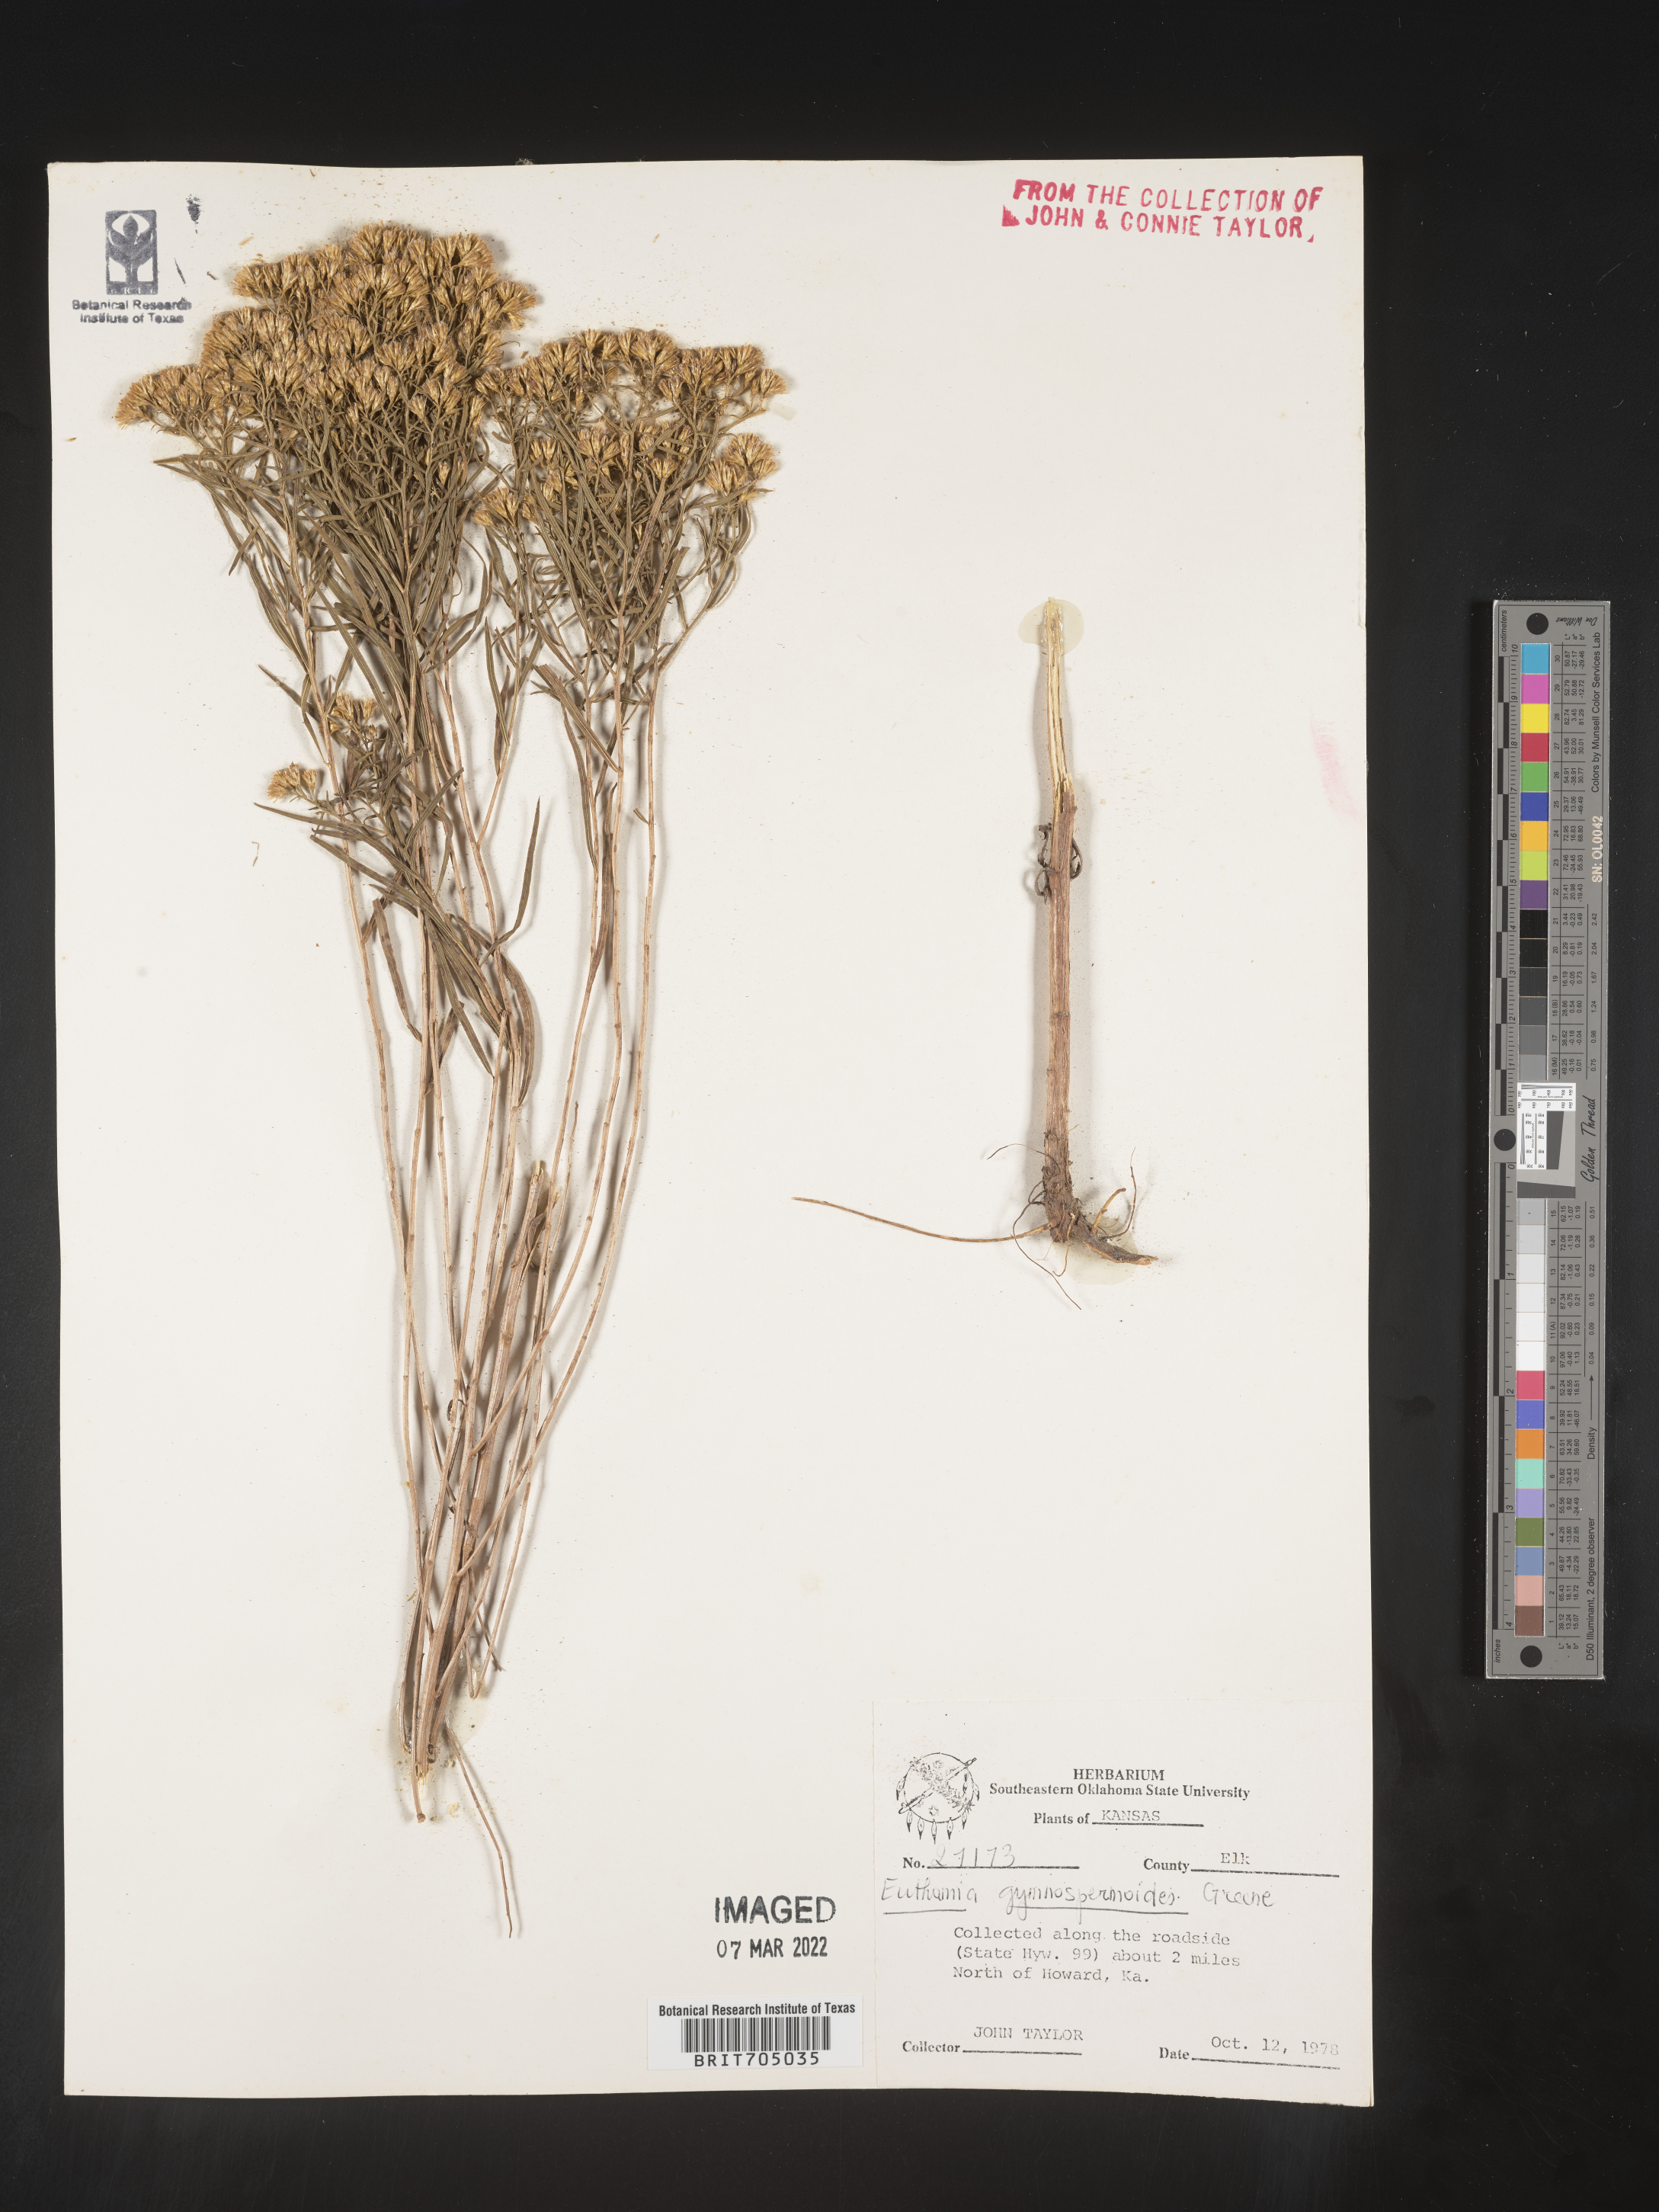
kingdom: Plantae
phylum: Tracheophyta
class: Magnoliopsida
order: Asterales
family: Asteraceae
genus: Euthamia
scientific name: Euthamia gymnospermoides
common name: Great plains goldentop
